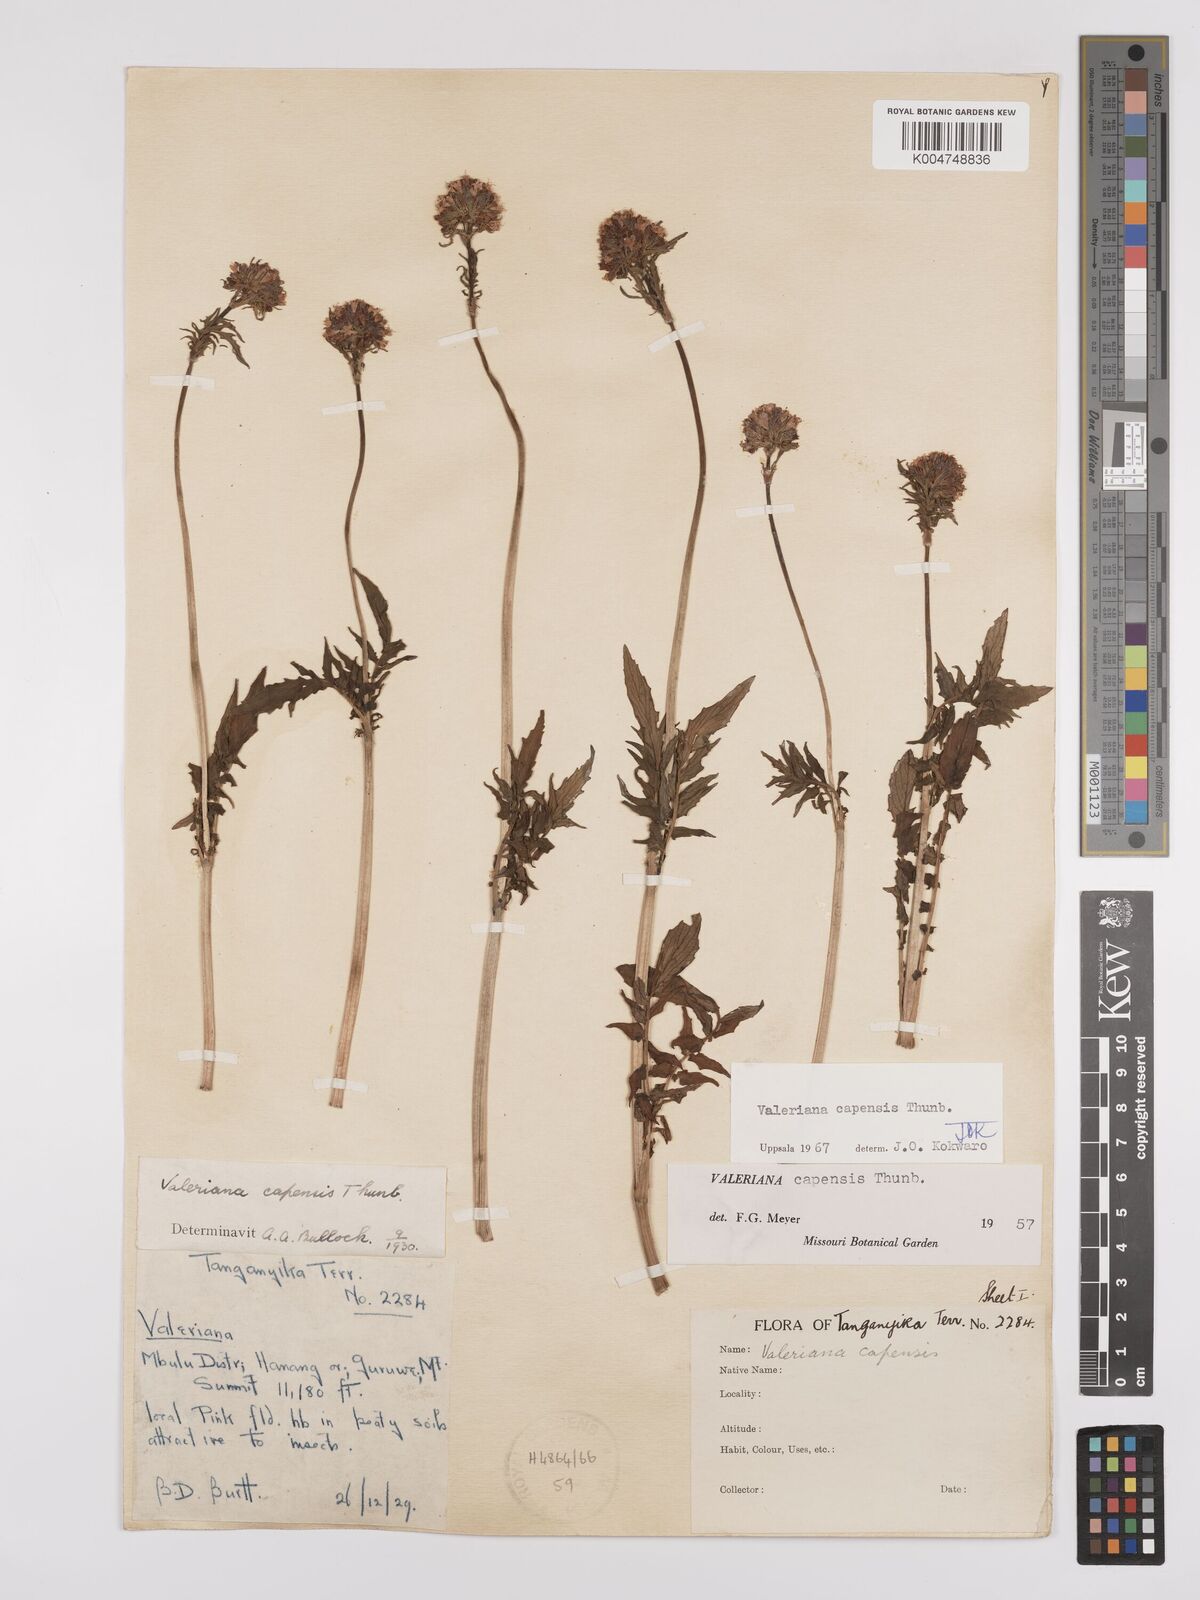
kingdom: Plantae
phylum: Tracheophyta
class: Magnoliopsida
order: Dipsacales
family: Caprifoliaceae
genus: Valeriana
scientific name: Valeriana capensis
